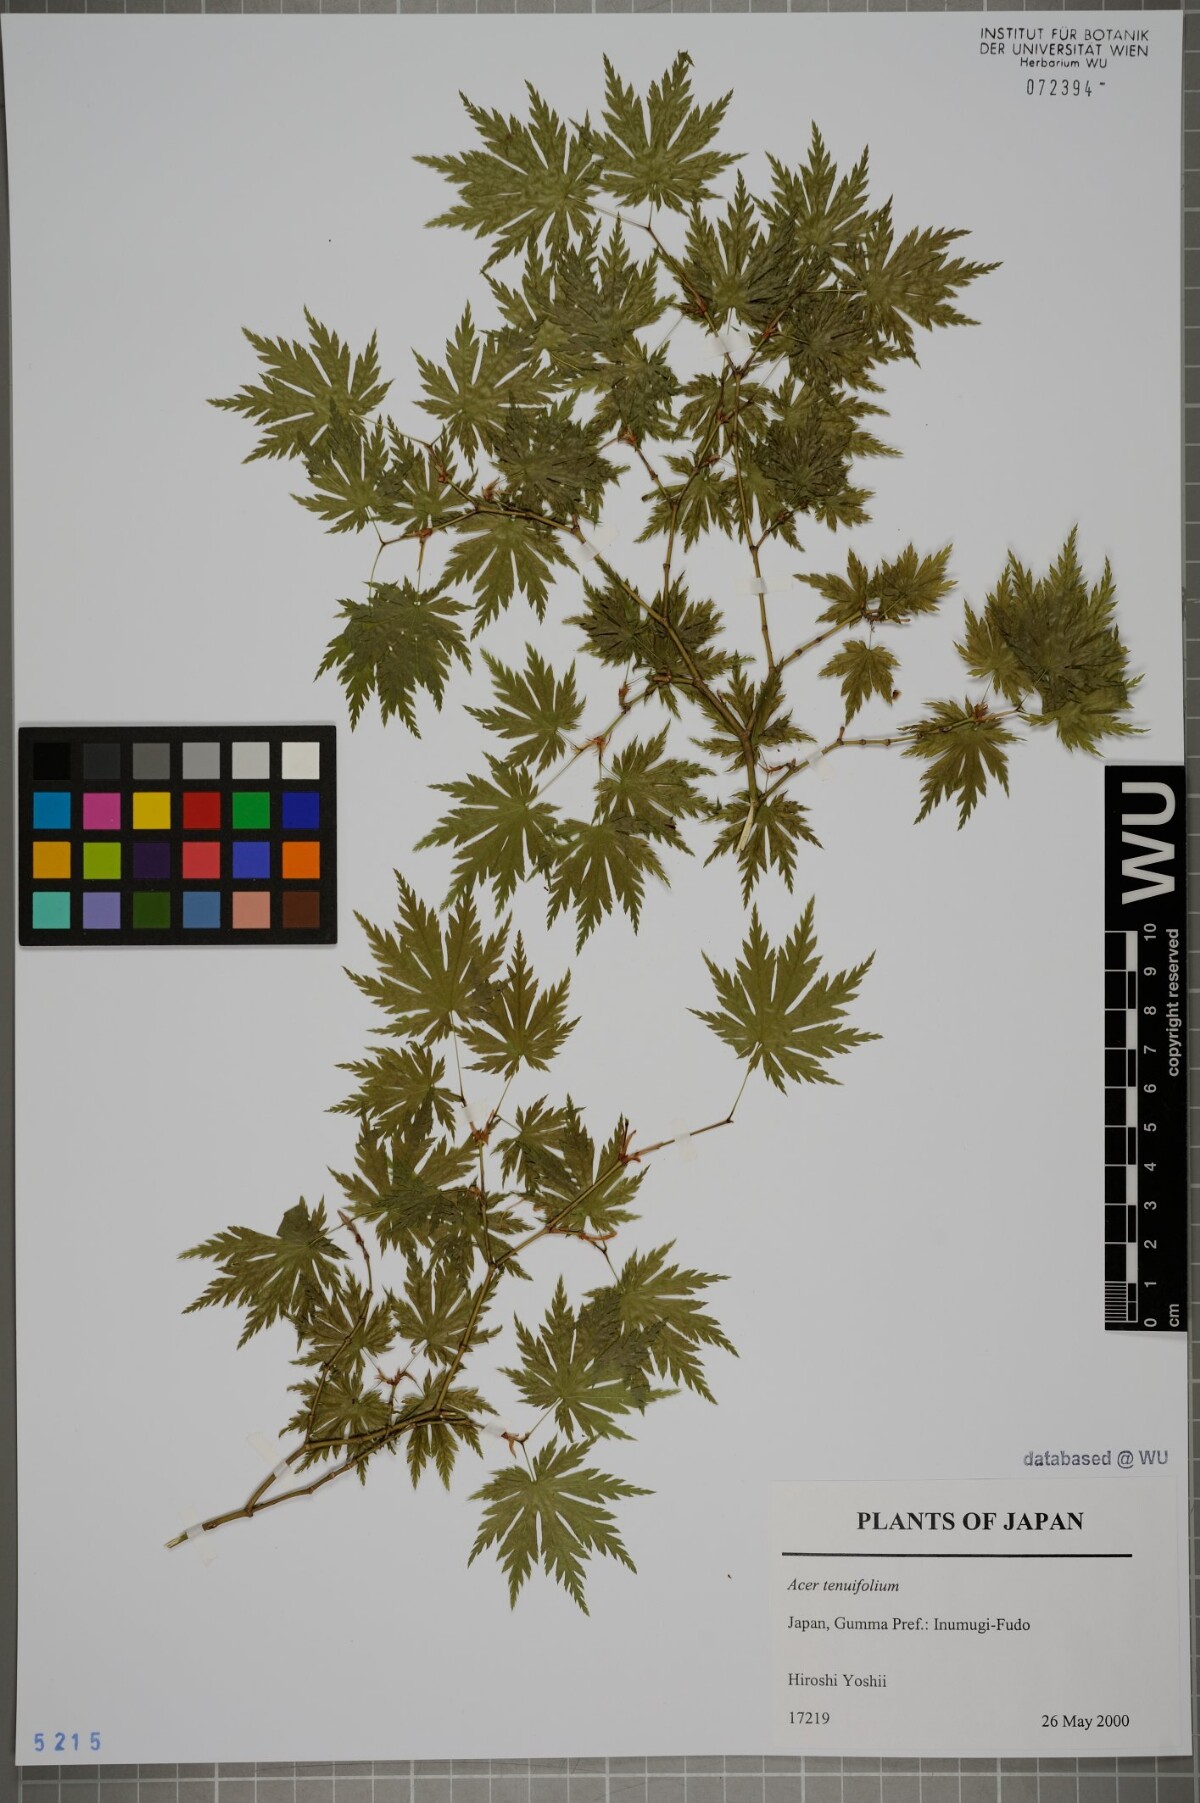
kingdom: Plantae
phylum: Tracheophyta
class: Magnoliopsida
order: Sapindales
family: Sapindaceae
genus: Acer
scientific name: Acer shirasawanum
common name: Full moon maple
